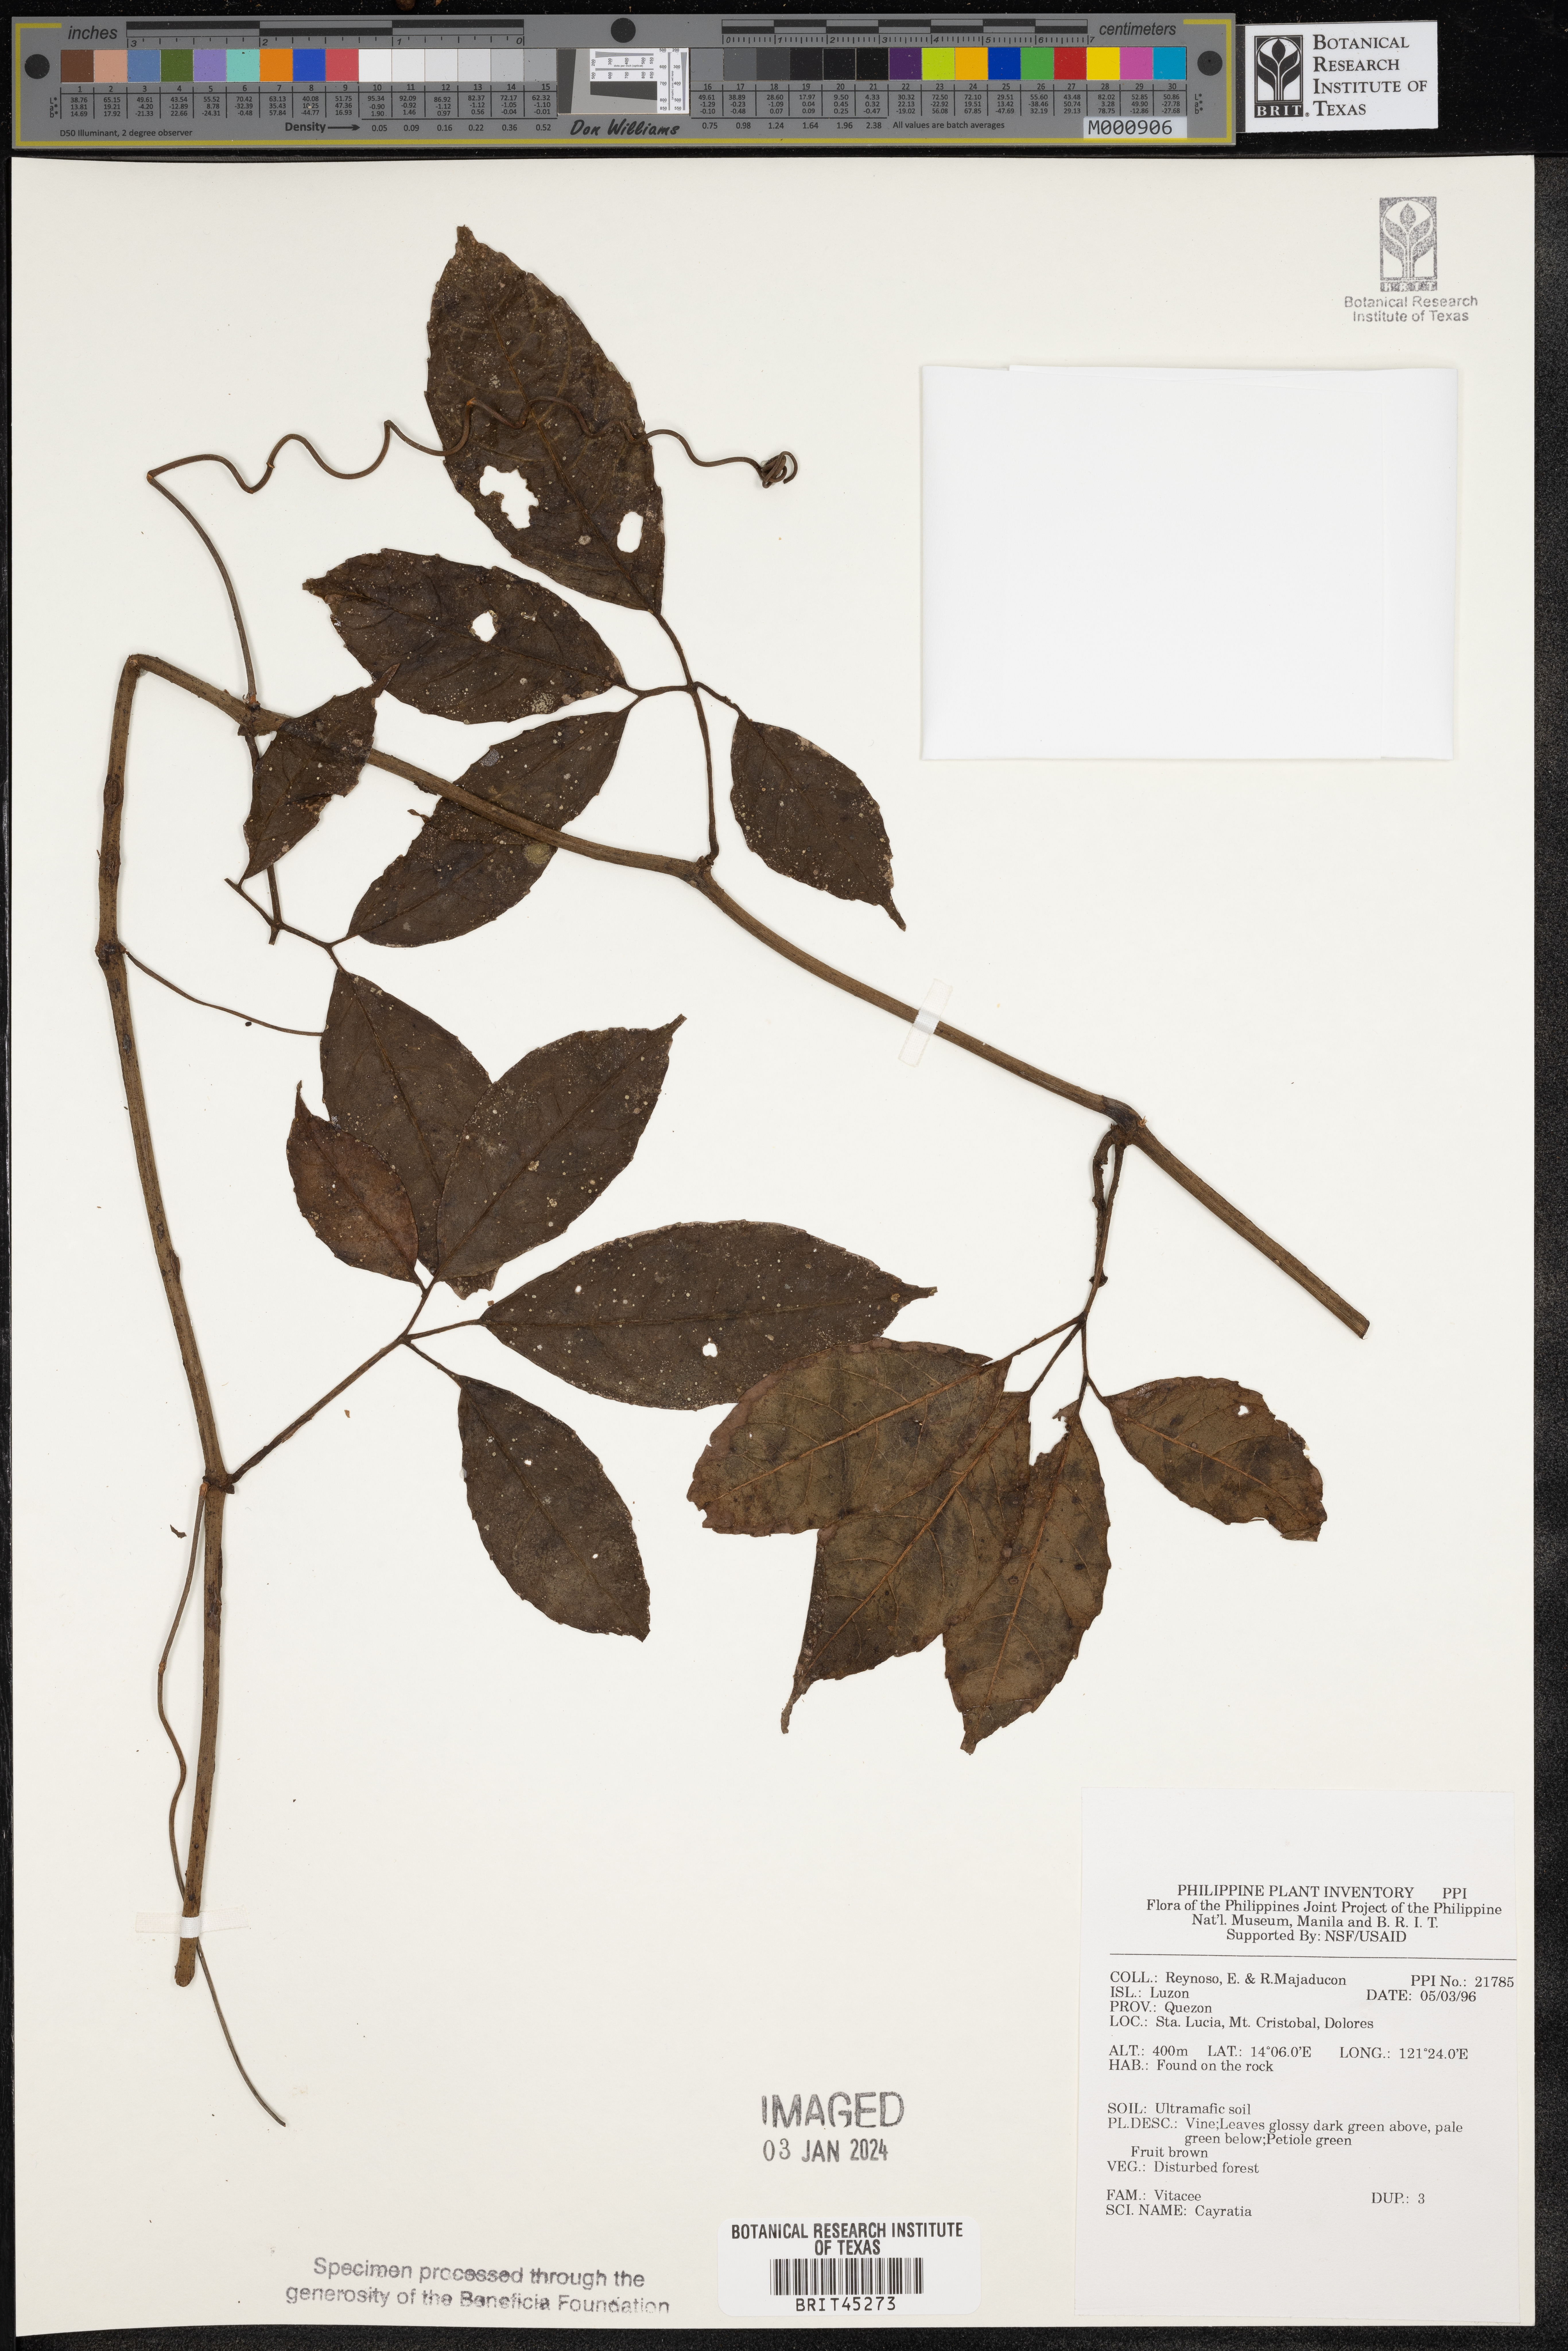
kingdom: Plantae
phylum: Tracheophyta
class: Magnoliopsida
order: Vitales
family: Vitaceae
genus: Cayratia
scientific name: Cayratia
